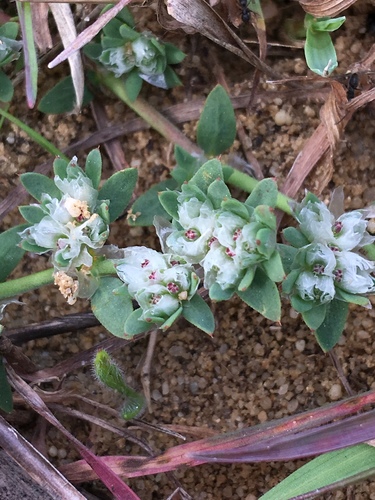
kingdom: Plantae
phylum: Tracheophyta
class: Magnoliopsida
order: Caryophyllales
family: Caryophyllaceae
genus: Paronychia
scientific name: Paronychia argentea
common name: Silver nailroot
